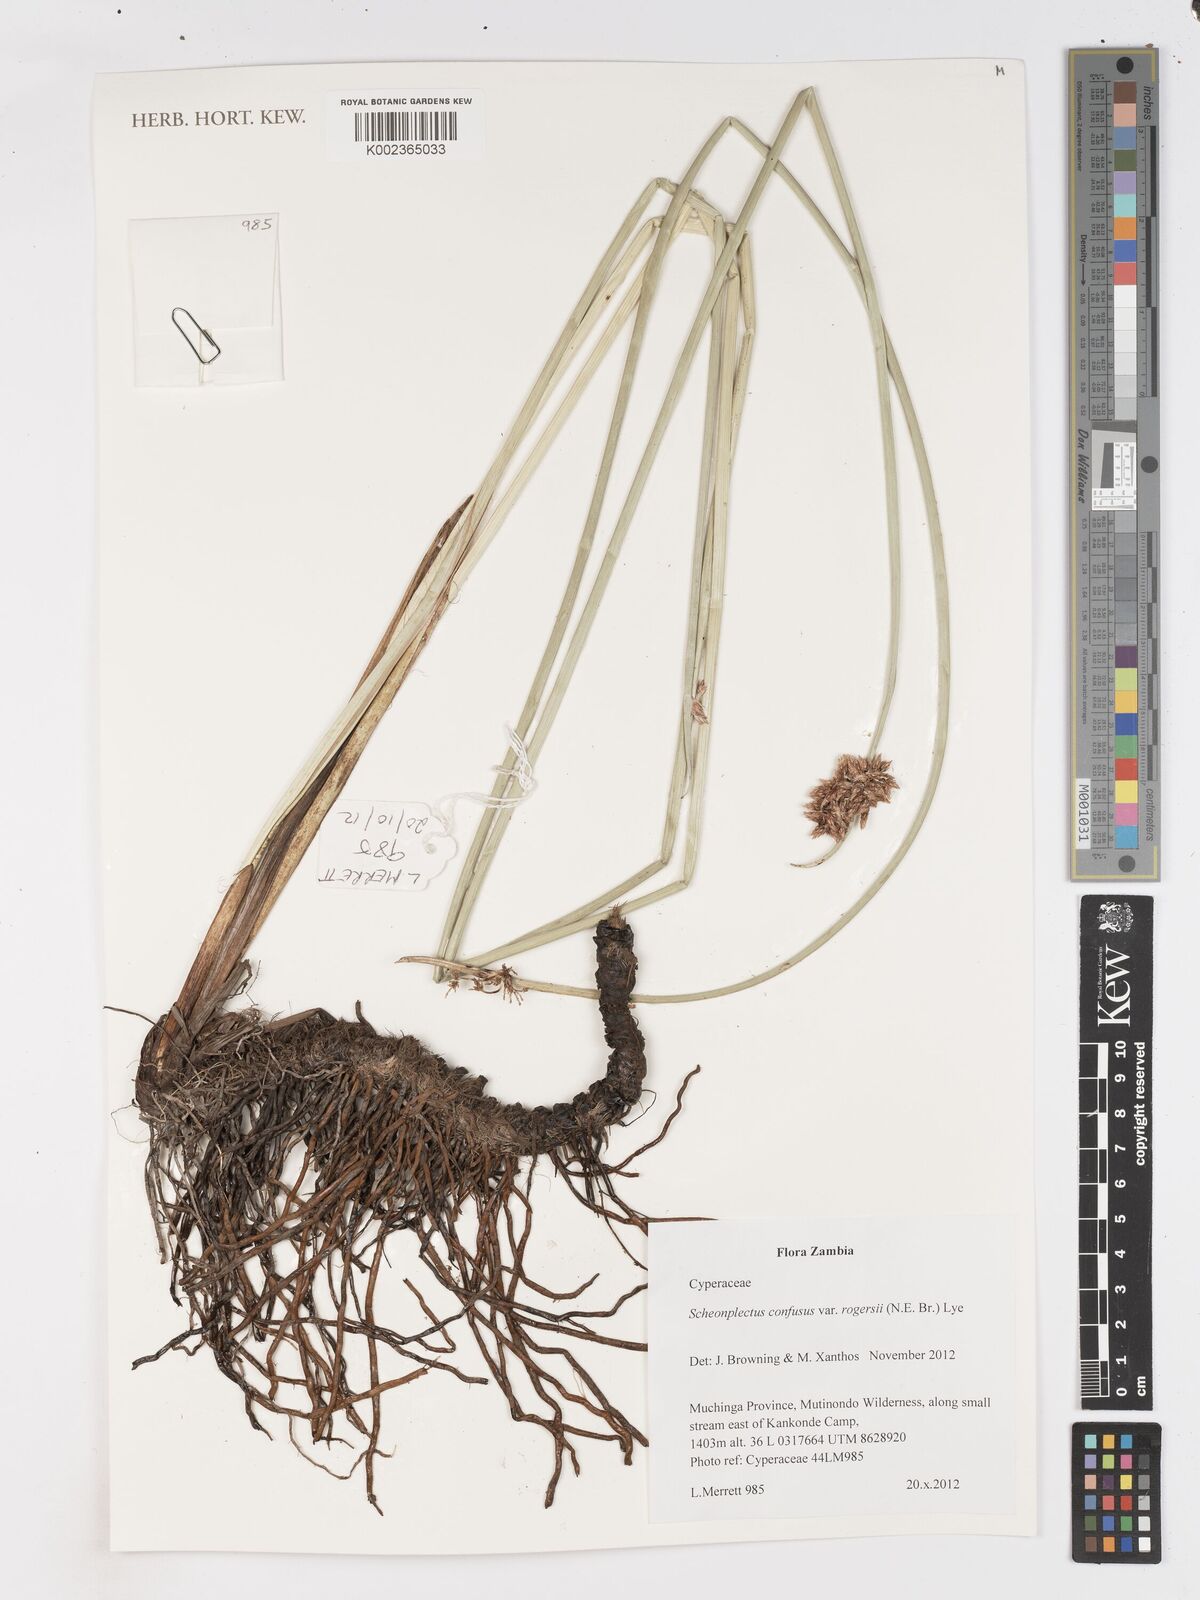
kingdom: Plantae
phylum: Tracheophyta
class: Liliopsida
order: Poales
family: Cyperaceae
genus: Schoenoplectiella
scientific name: Schoenoplectiella rogersii
